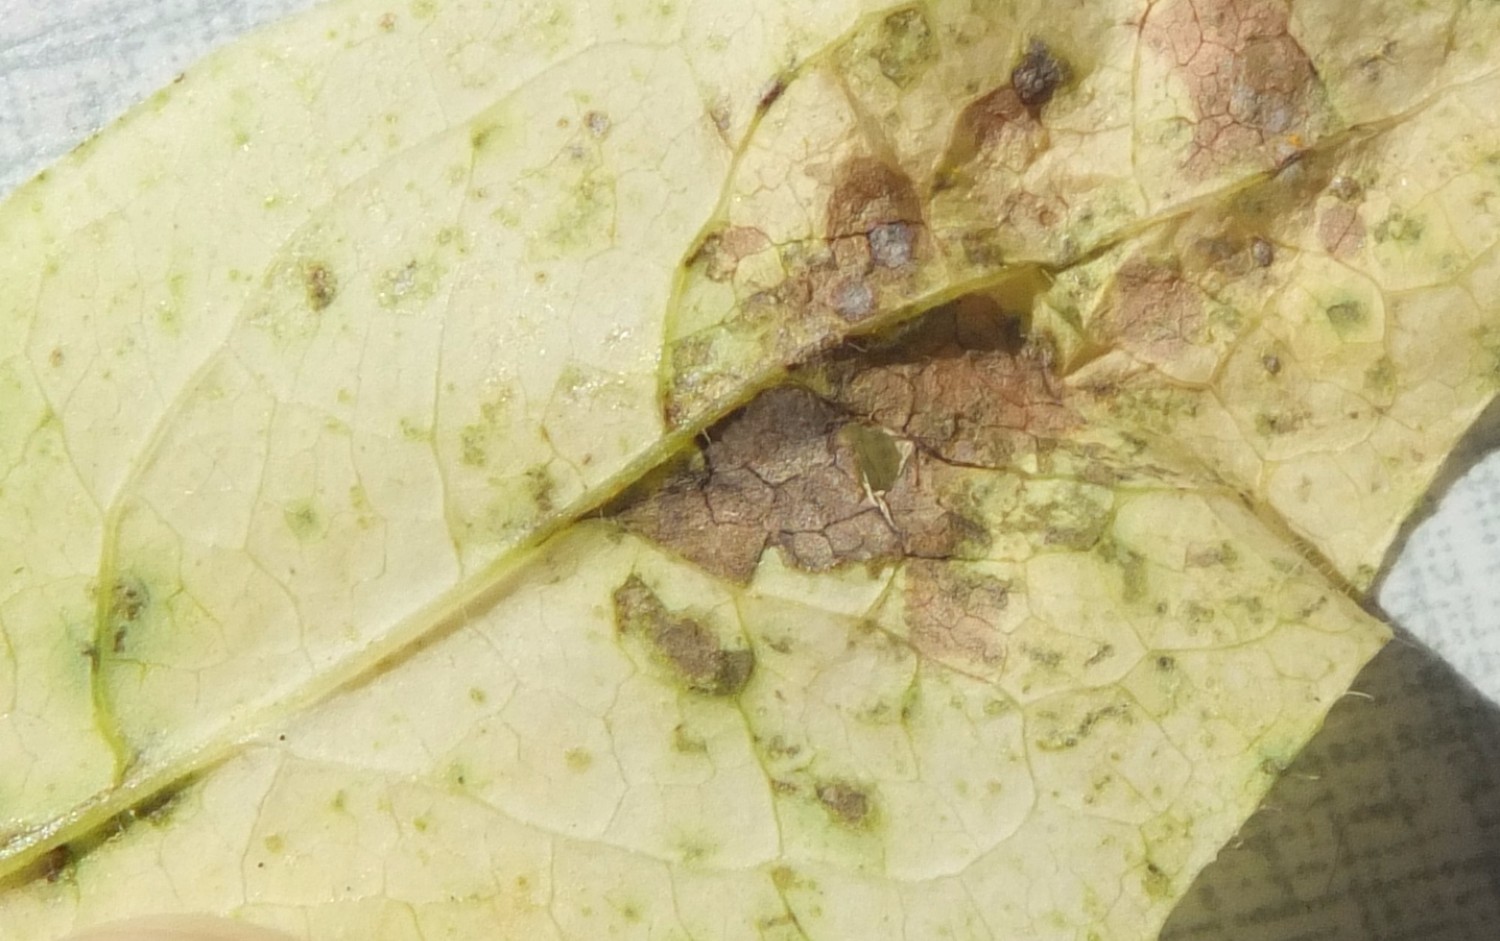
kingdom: Fungi
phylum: Basidiomycota
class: Pucciniomycetes
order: Pucciniales
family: Pucciniaceae
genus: Puccinia
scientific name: Puccinia festucae
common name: gedeblad-tvecellerust
